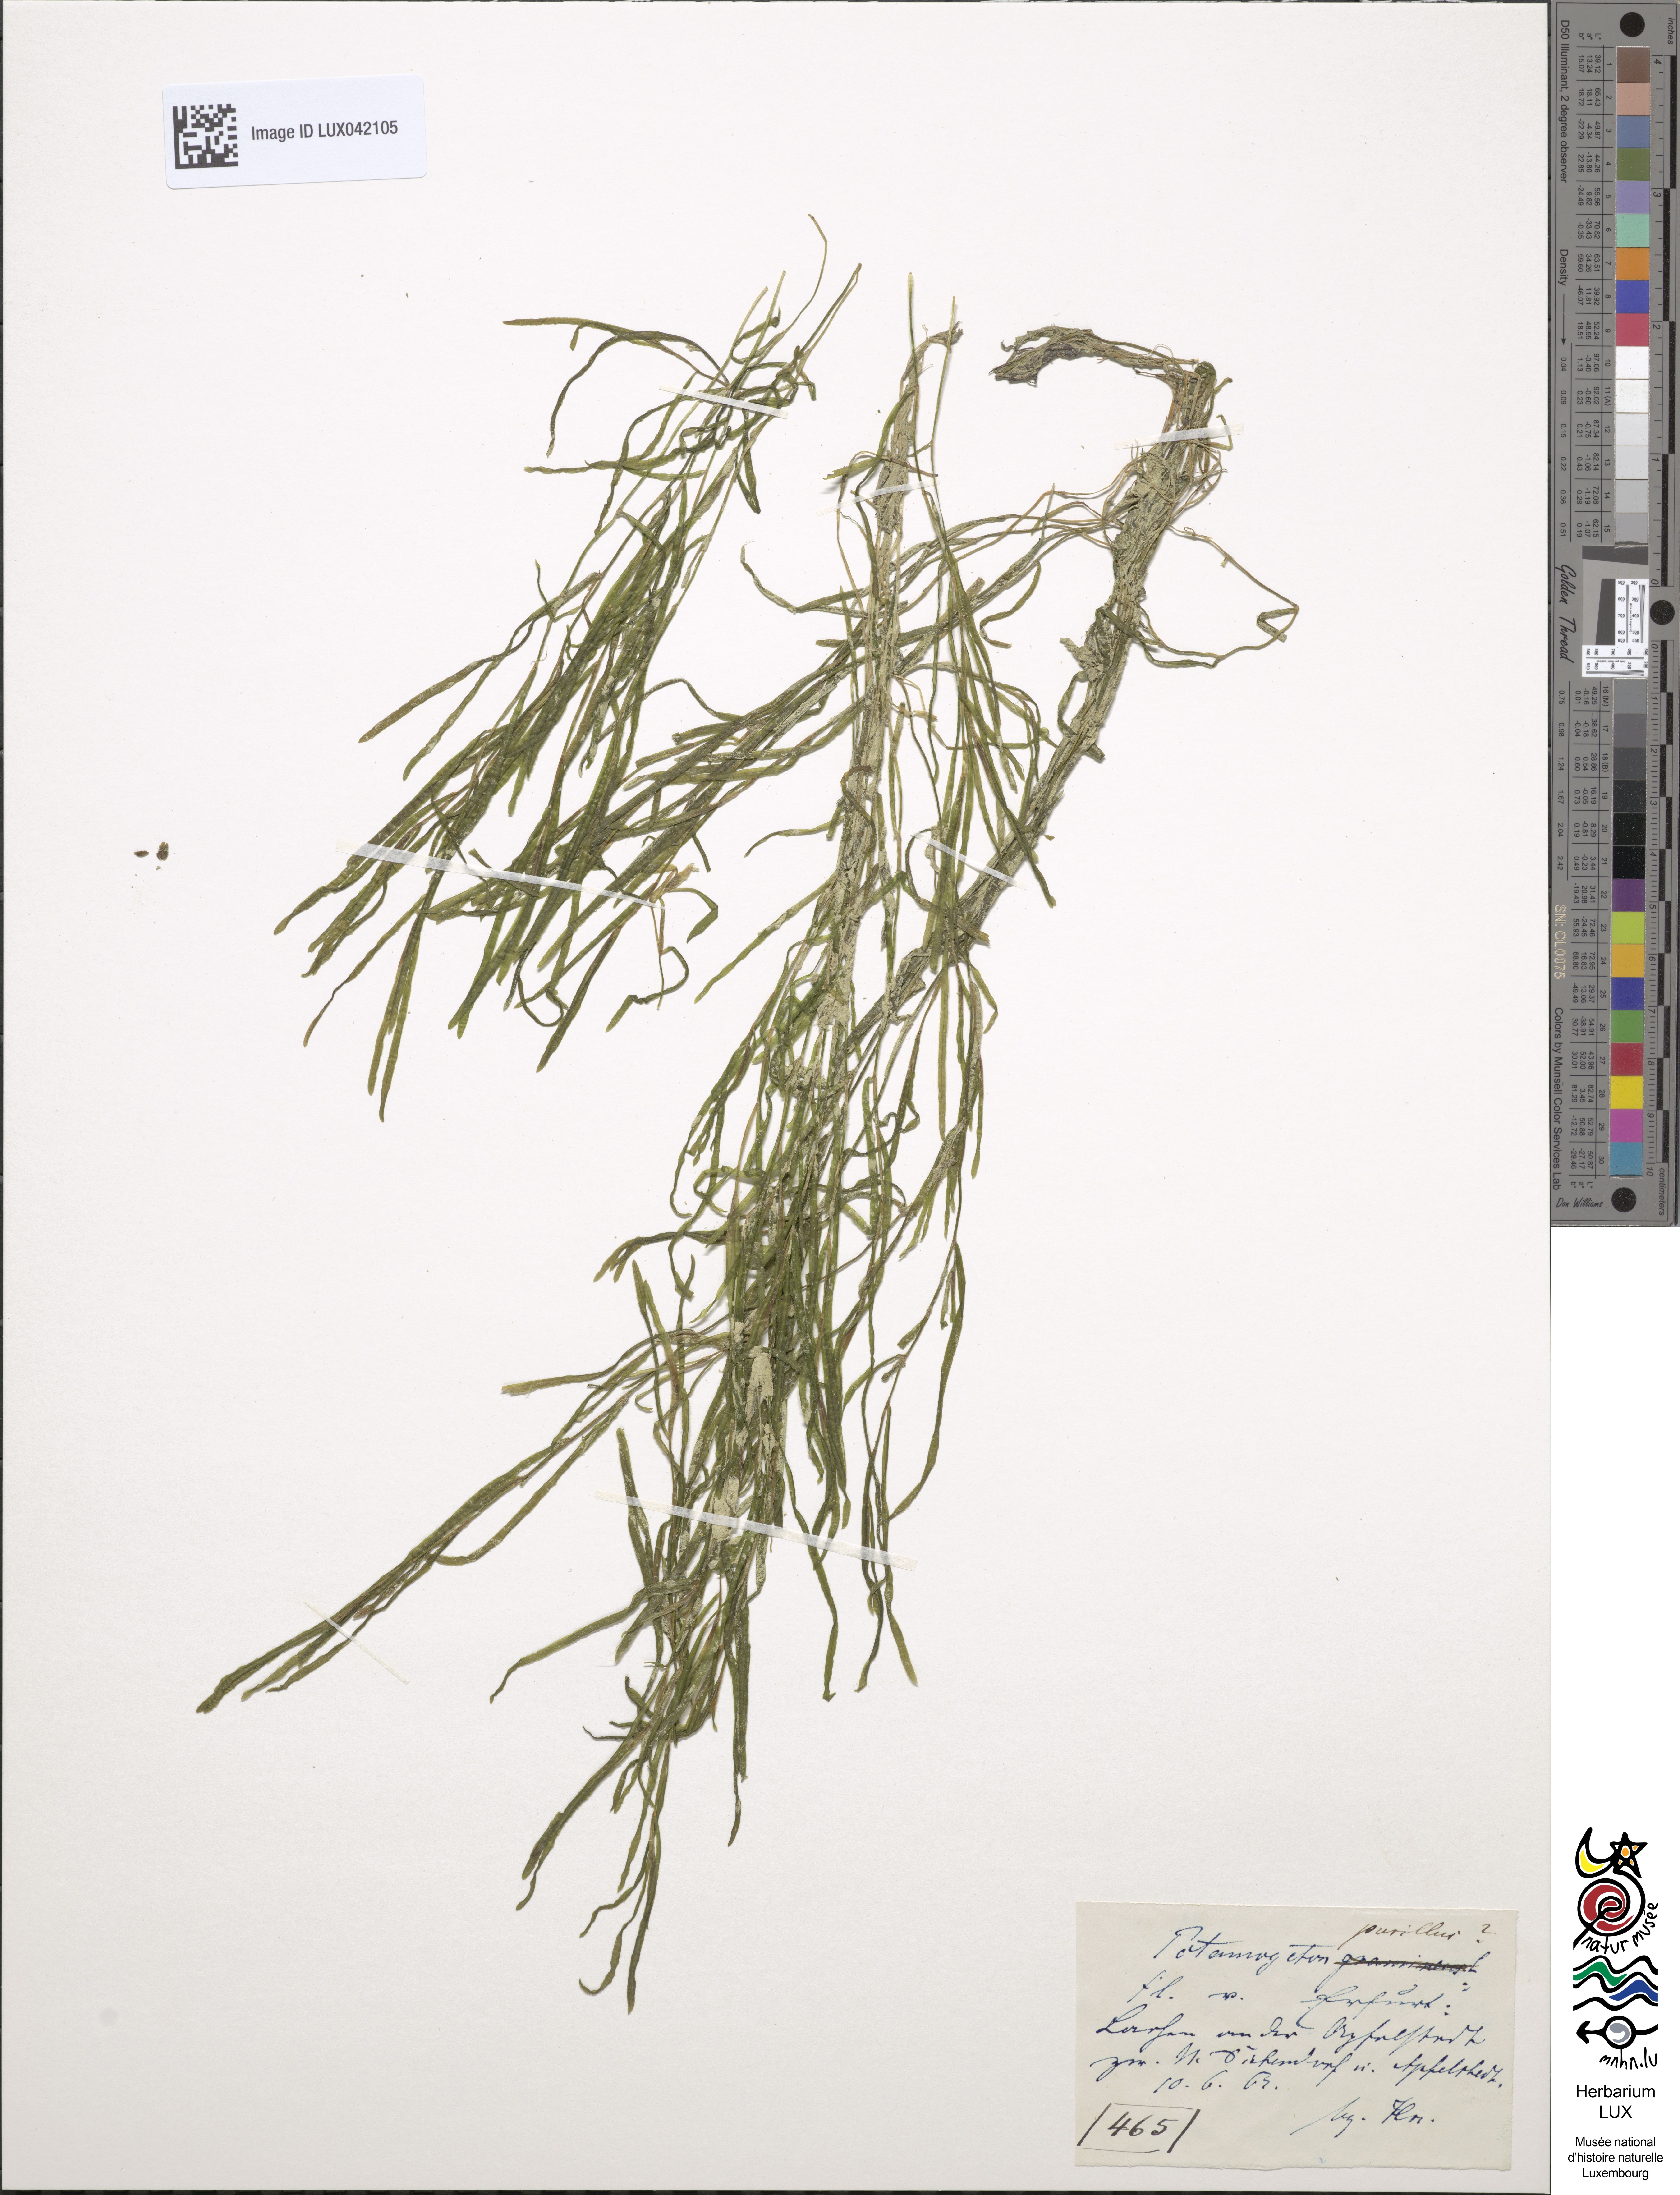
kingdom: Plantae
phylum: Tracheophyta
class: Liliopsida
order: Alismatales
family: Potamogetonaceae
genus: Potamogeton
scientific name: Potamogeton pusillus
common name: Lesser pondweed
